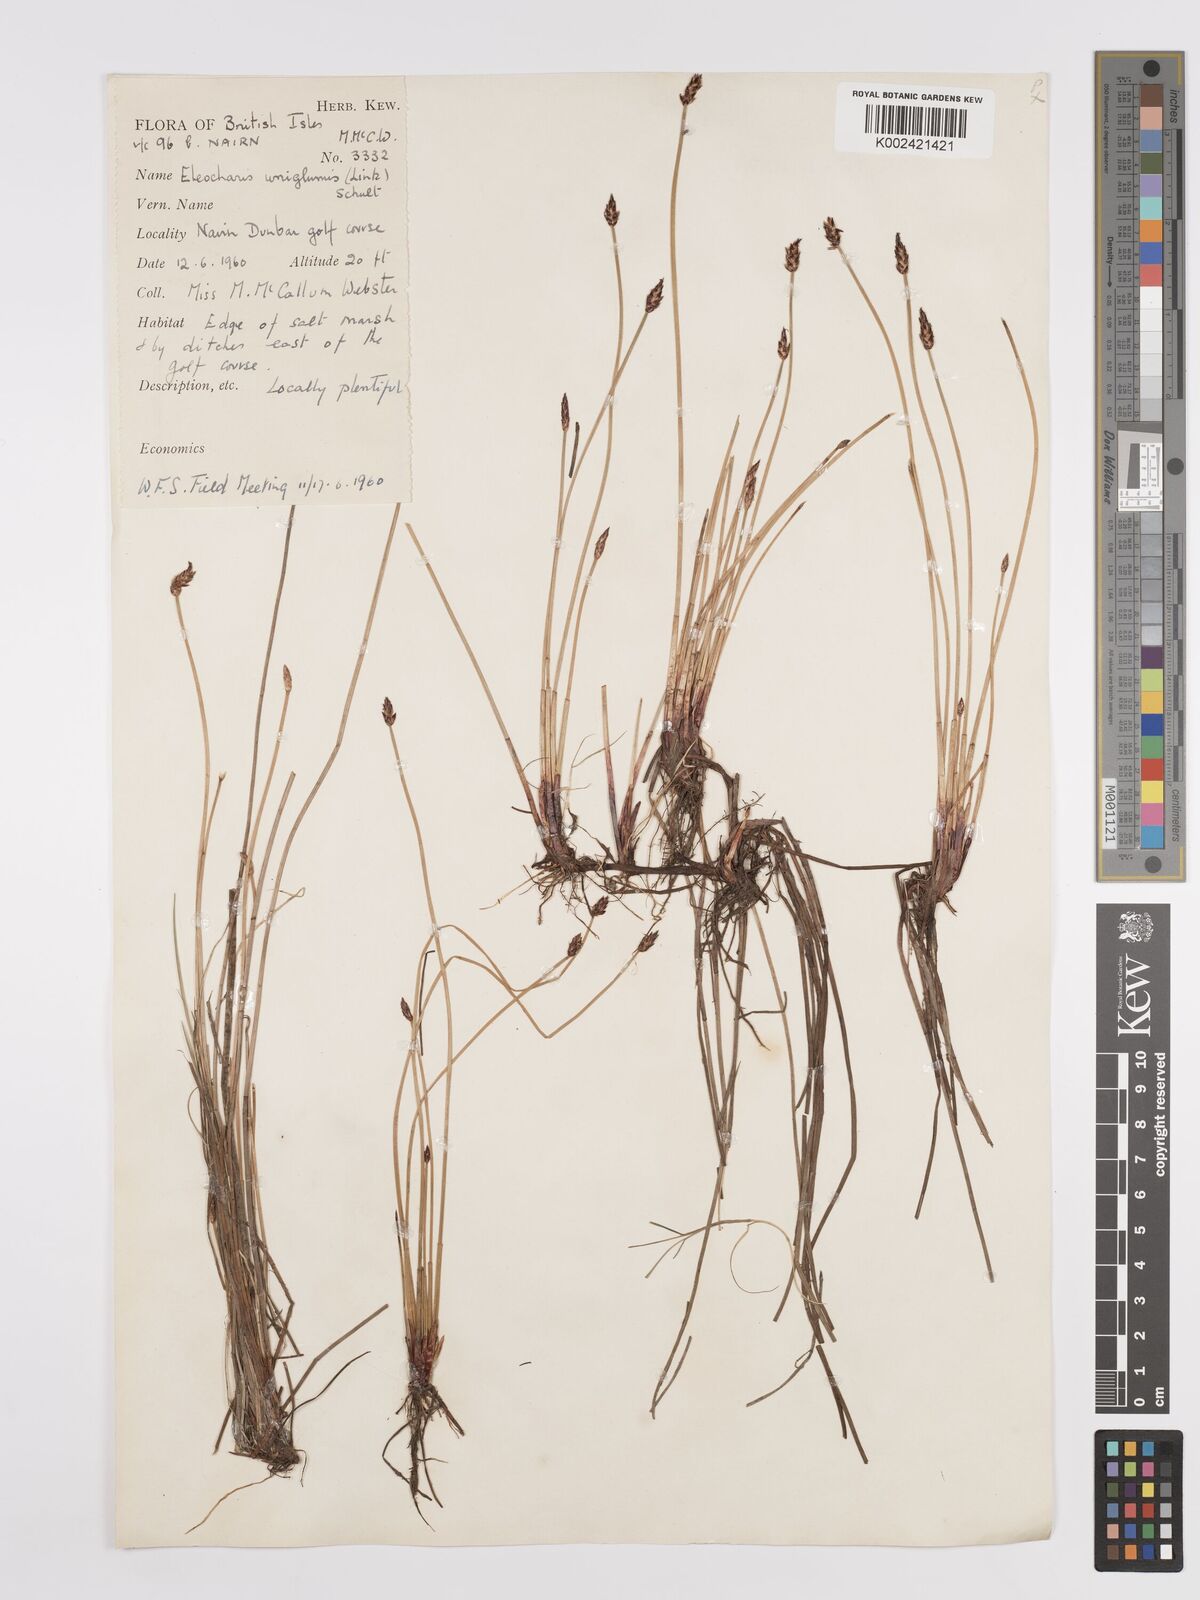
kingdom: Plantae
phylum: Tracheophyta
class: Liliopsida
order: Poales
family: Cyperaceae
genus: Eleocharis
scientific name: Eleocharis uniglumis
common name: Slender spike-rush
